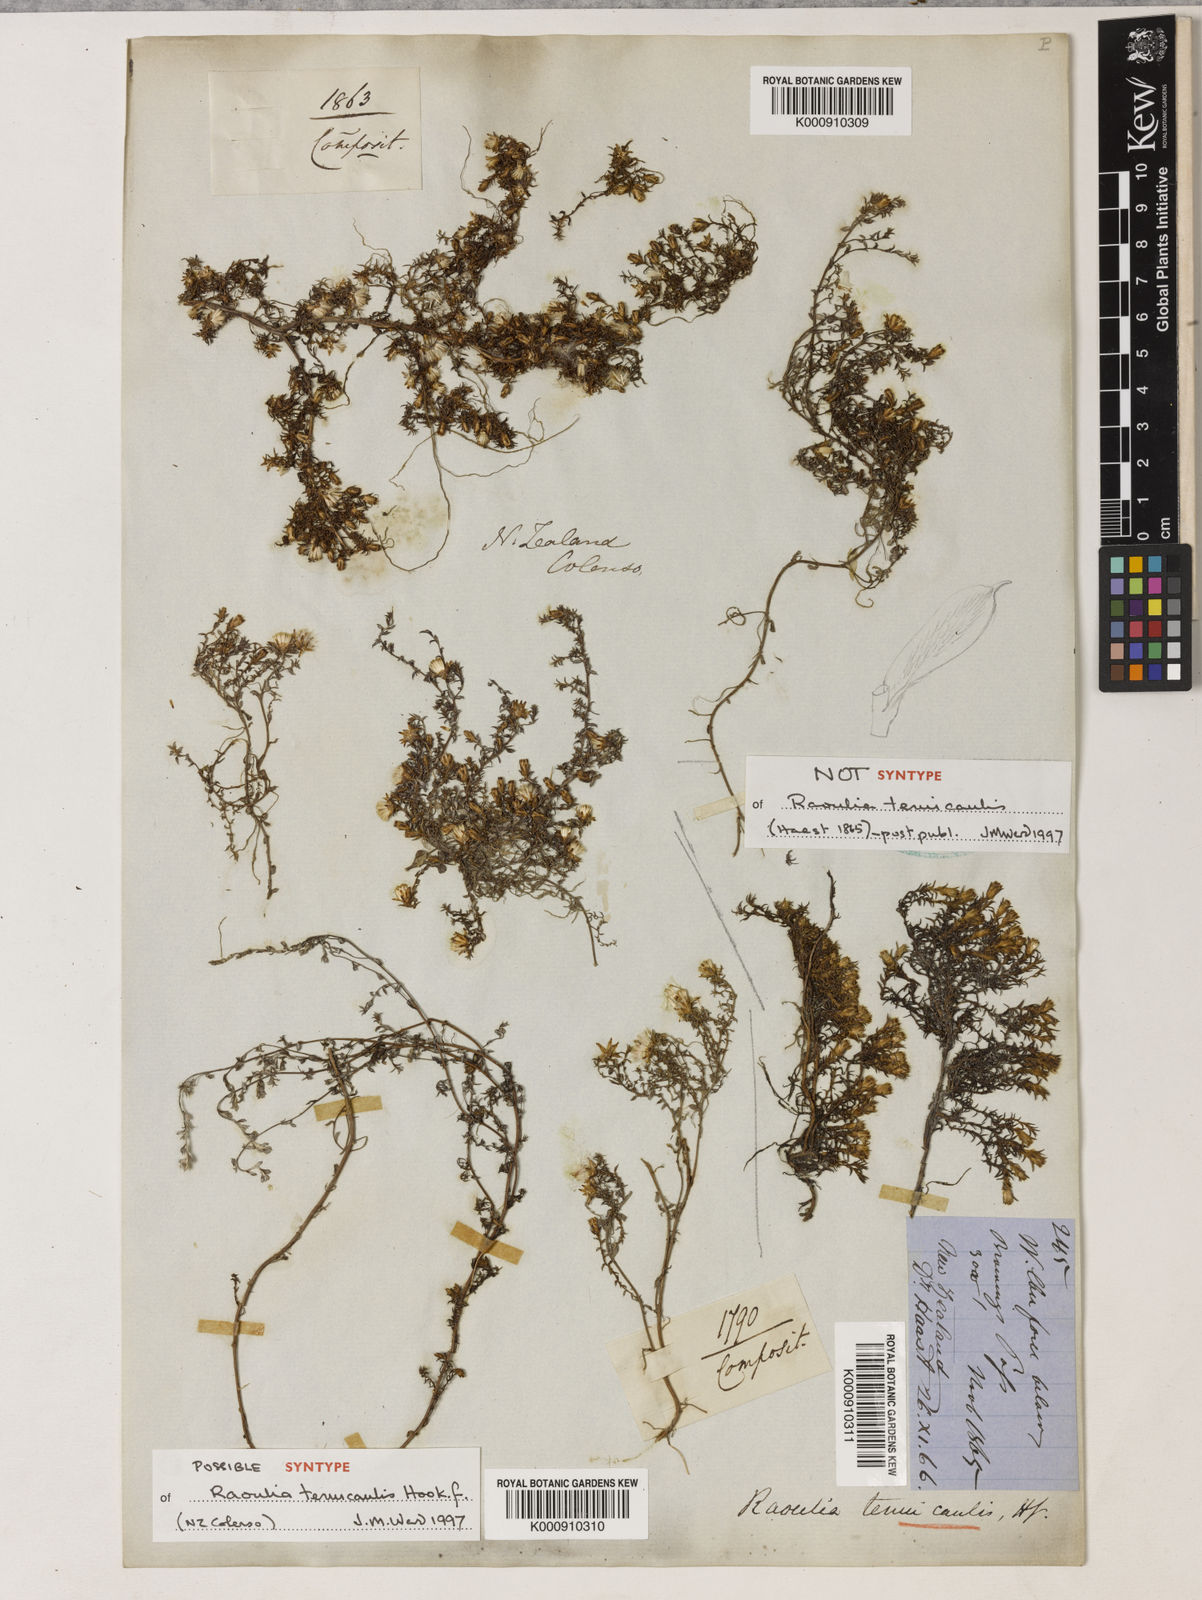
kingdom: Plantae
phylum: Tracheophyta
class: Magnoliopsida
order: Asterales
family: Asteraceae
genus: Raoulia
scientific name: Raoulia tenuicaulis
